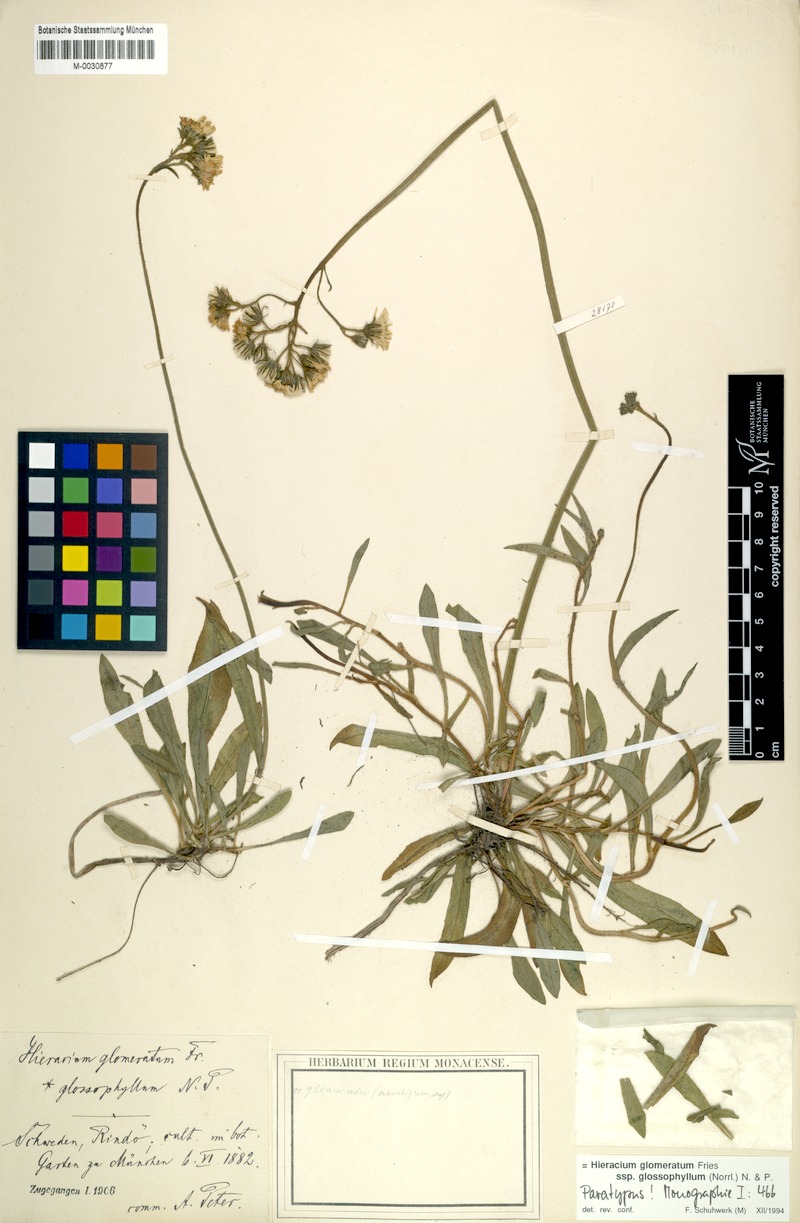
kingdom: Plantae
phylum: Tracheophyta
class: Magnoliopsida
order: Asterales
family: Asteraceae
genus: Hieracium
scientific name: Hieracium glomeratum
